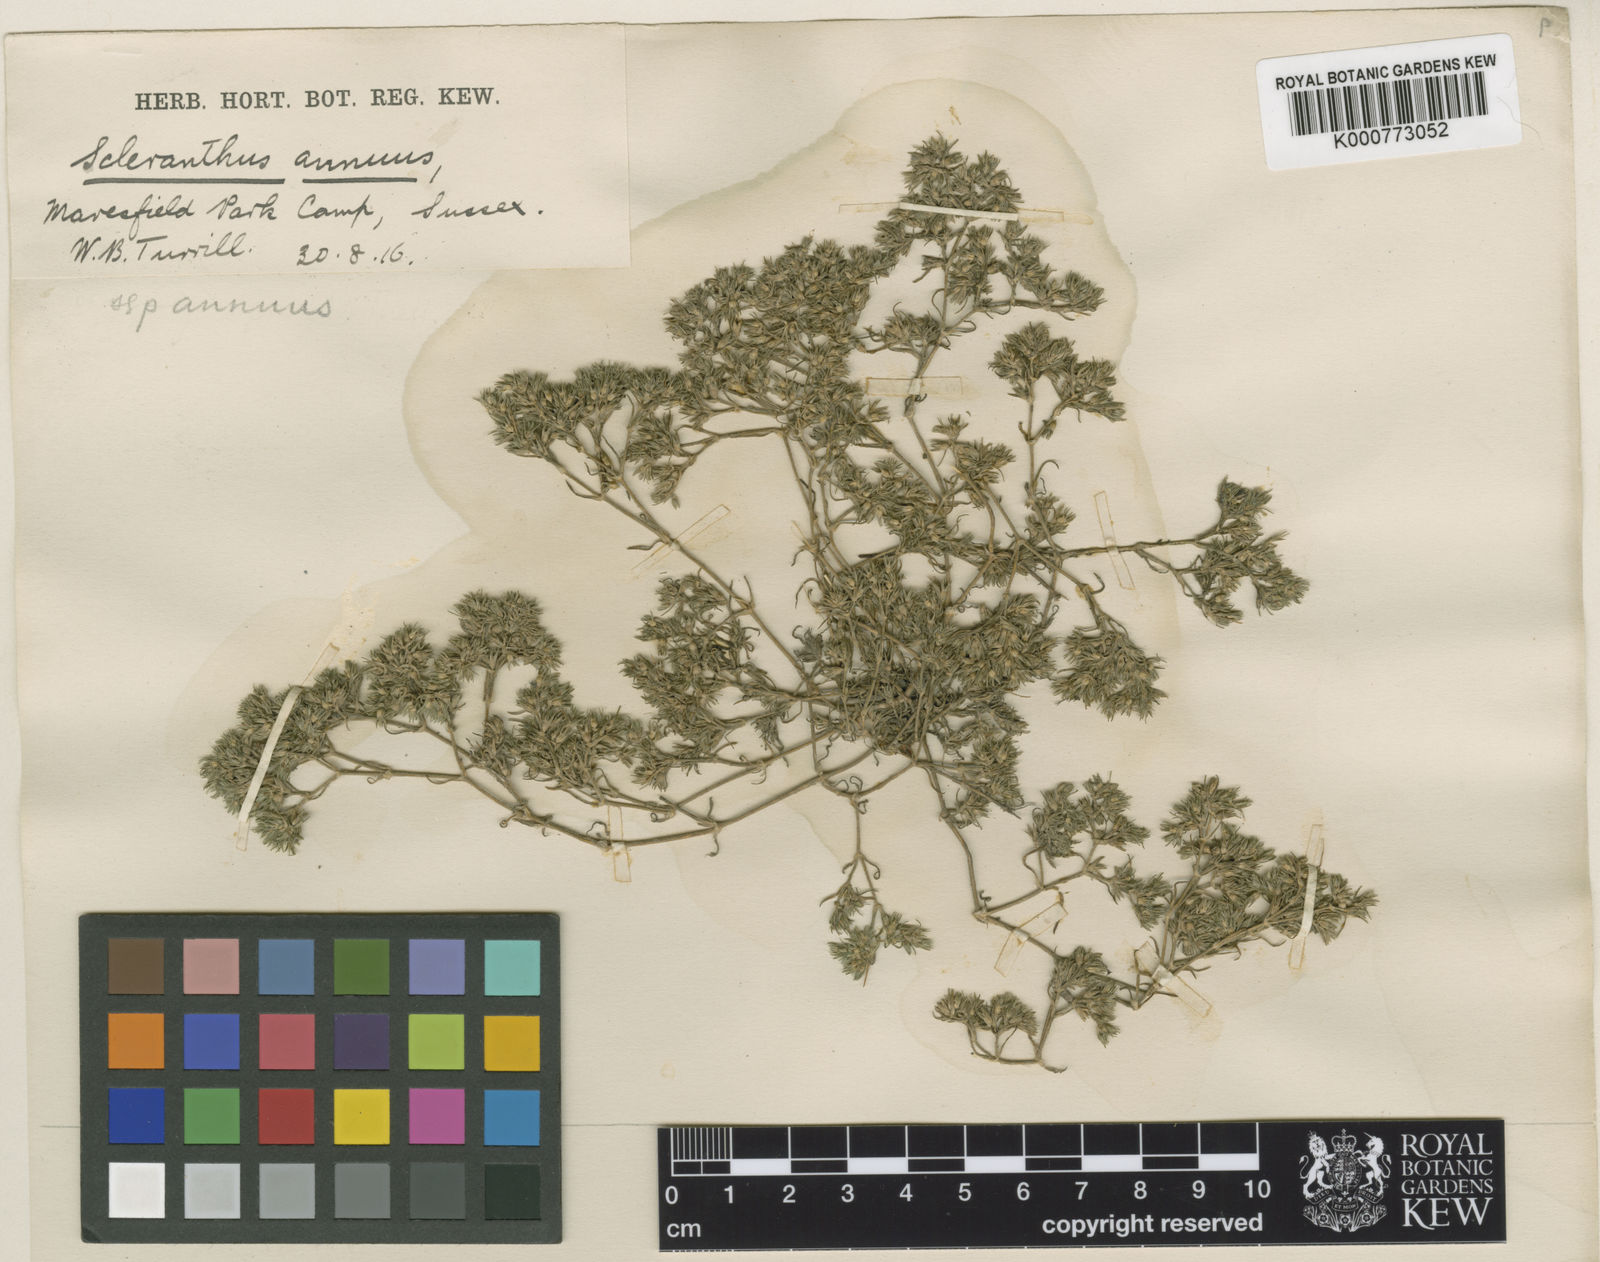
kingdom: Plantae
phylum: Tracheophyta
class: Magnoliopsida
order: Caryophyllales
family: Caryophyllaceae
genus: Scleranthus
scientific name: Scleranthus annuus
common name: Annual knawel
